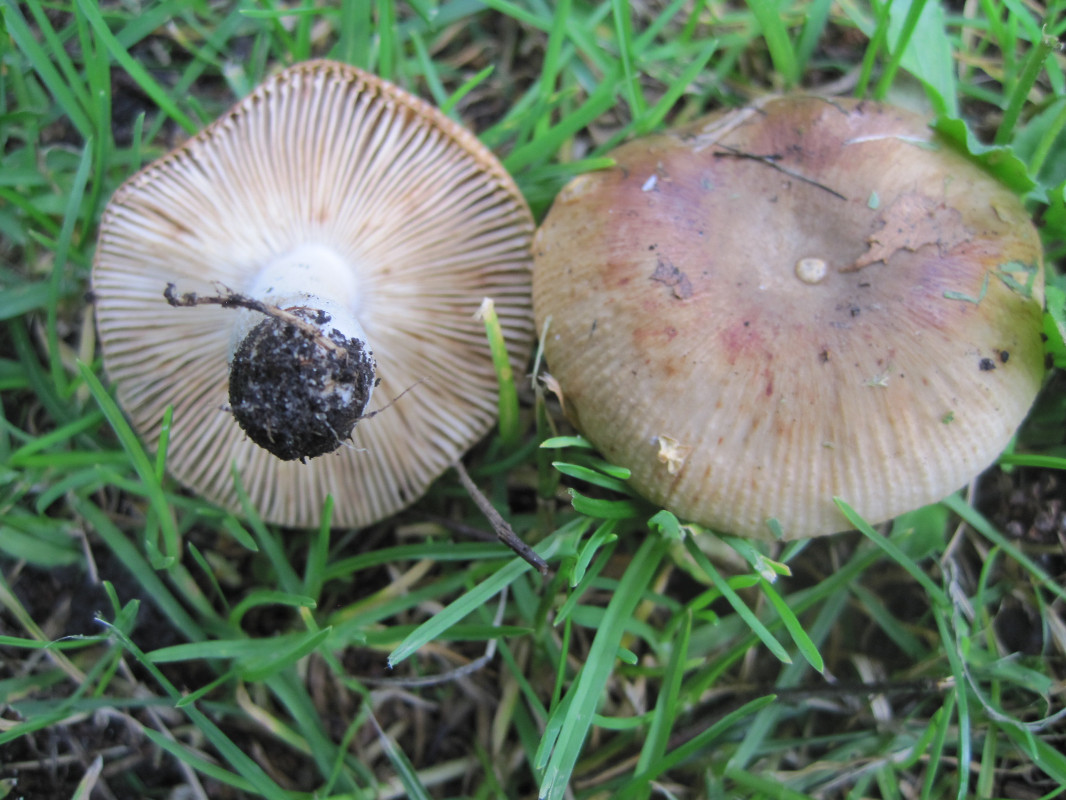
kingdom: Fungi
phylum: Basidiomycota
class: Agaricomycetes
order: Russulales
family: Russulaceae
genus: Russula
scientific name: Russula recondita
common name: mild kam-skørhat
